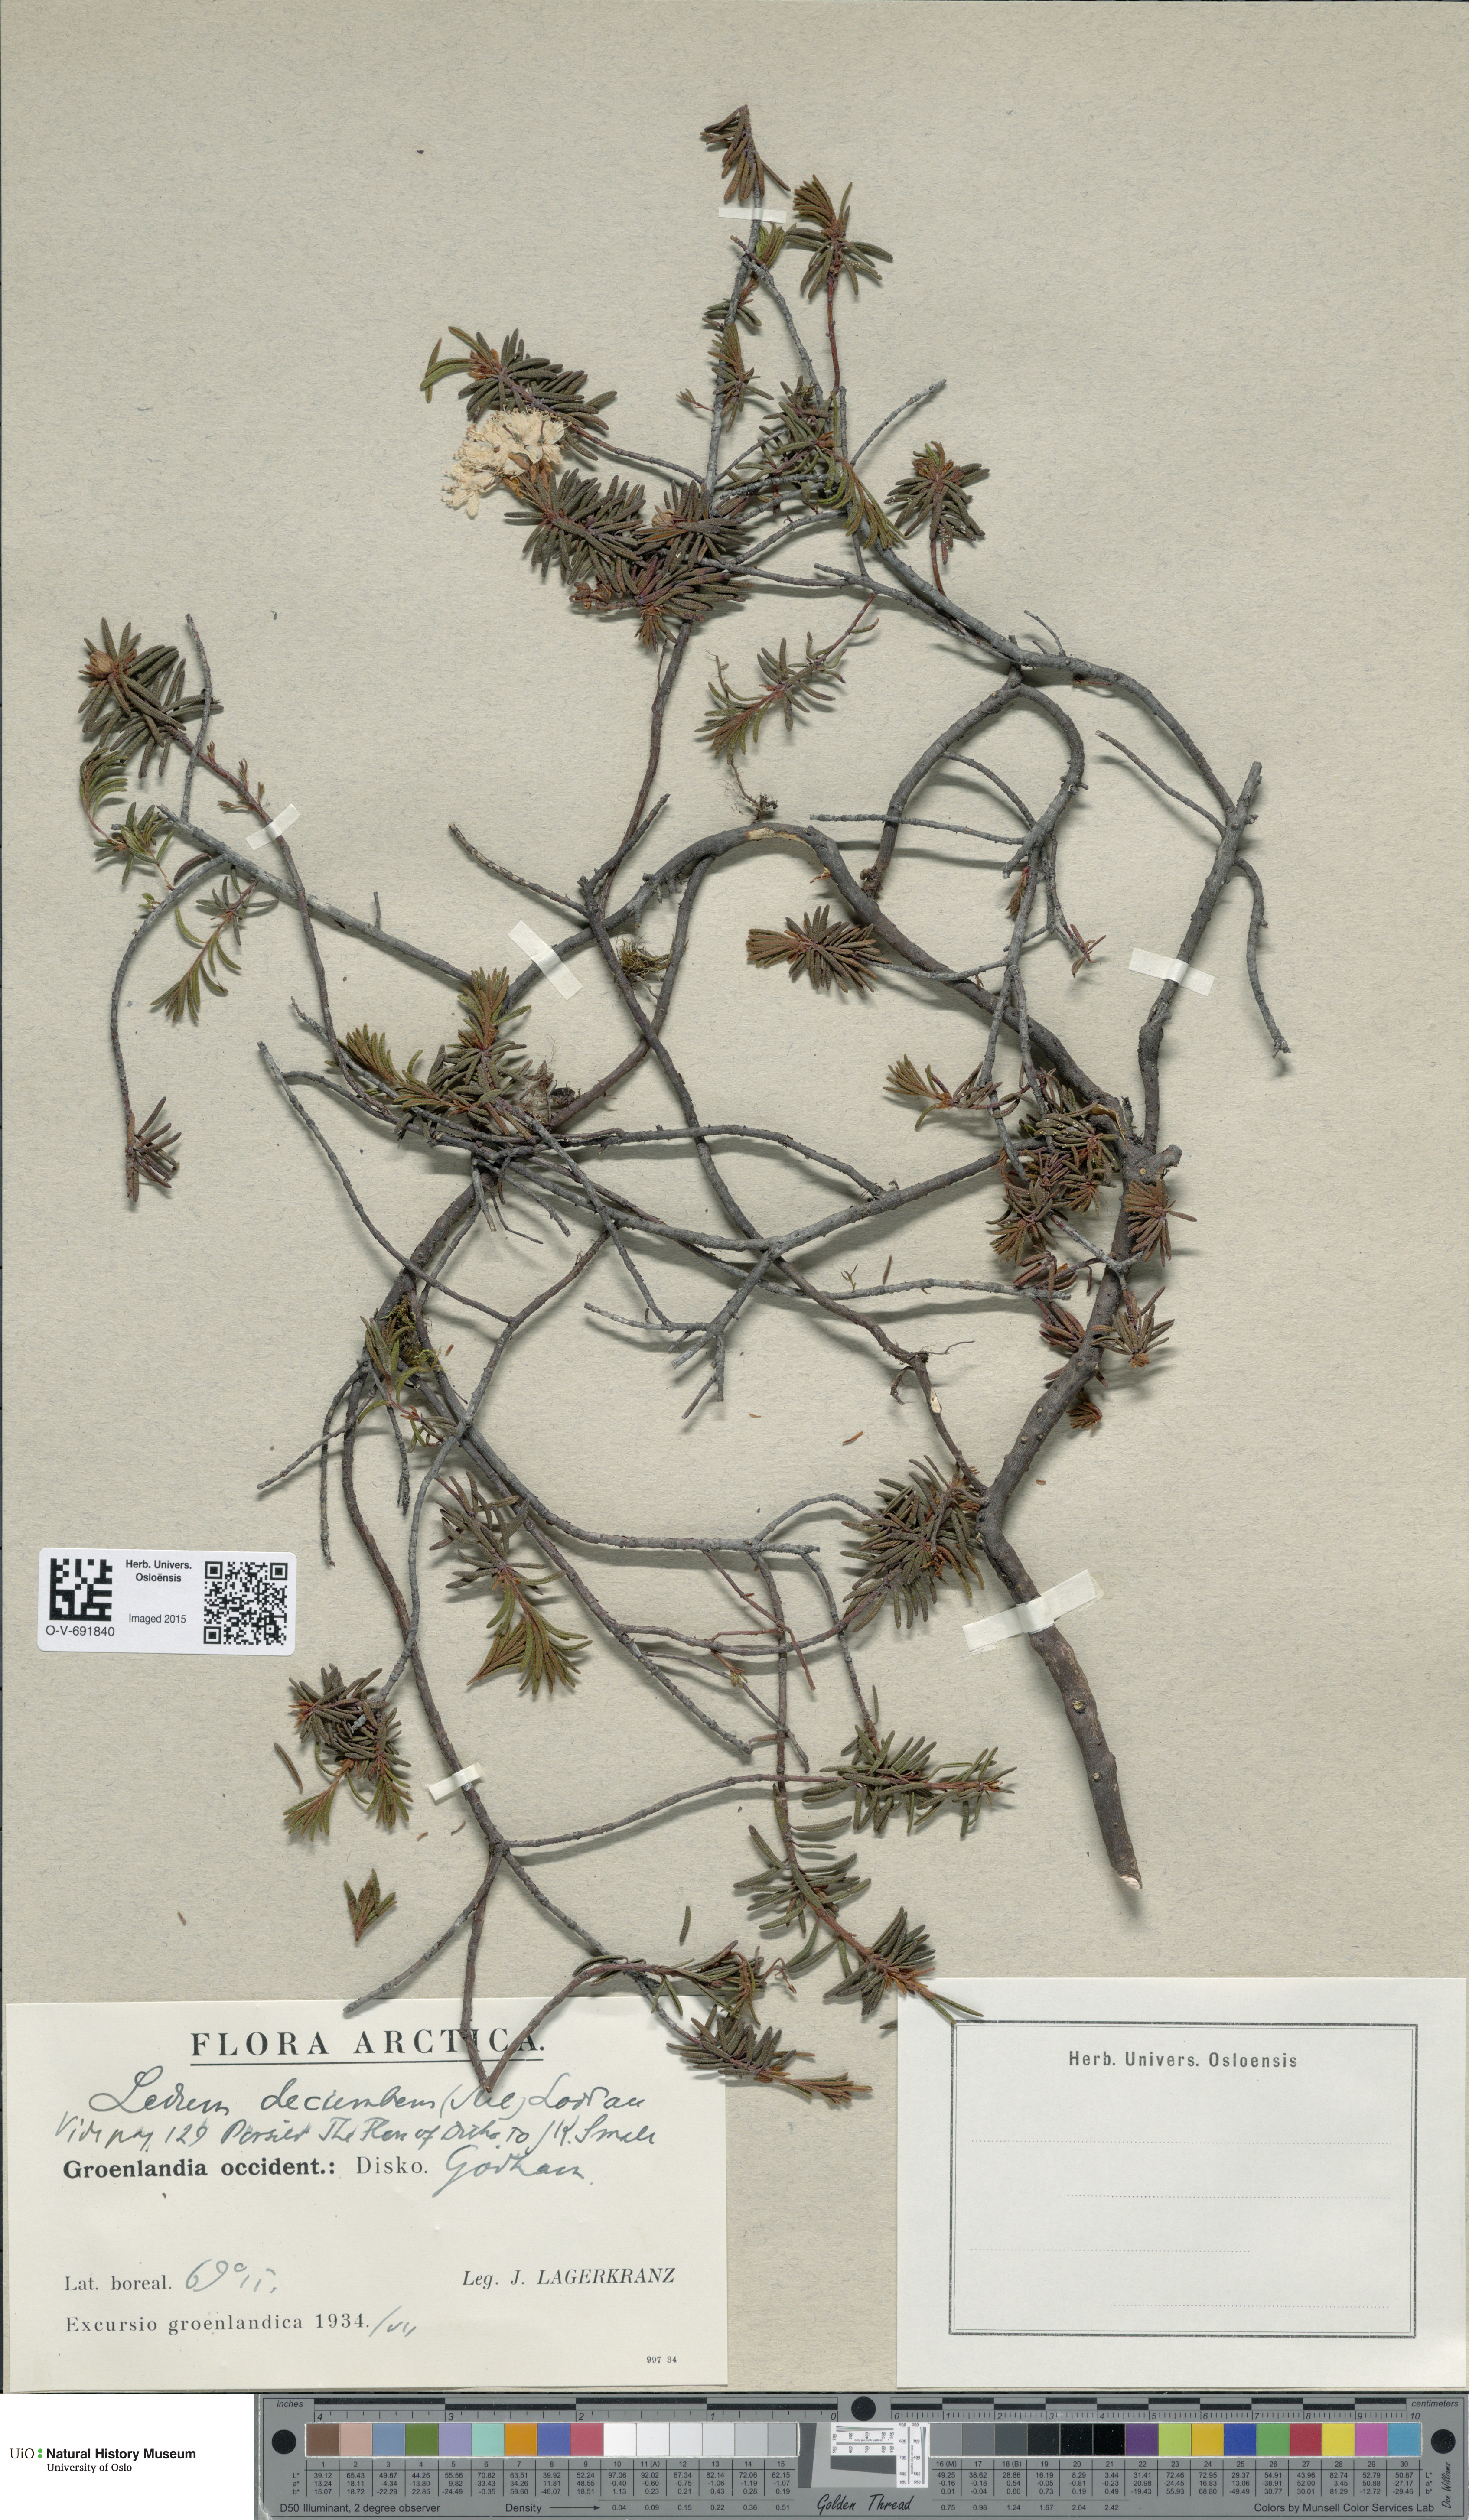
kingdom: Plantae
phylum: Tracheophyta
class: Magnoliopsida
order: Ericales
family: Ericaceae
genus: Rhododendron
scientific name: Rhododendron tomentosum
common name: Marsh labrador tea
